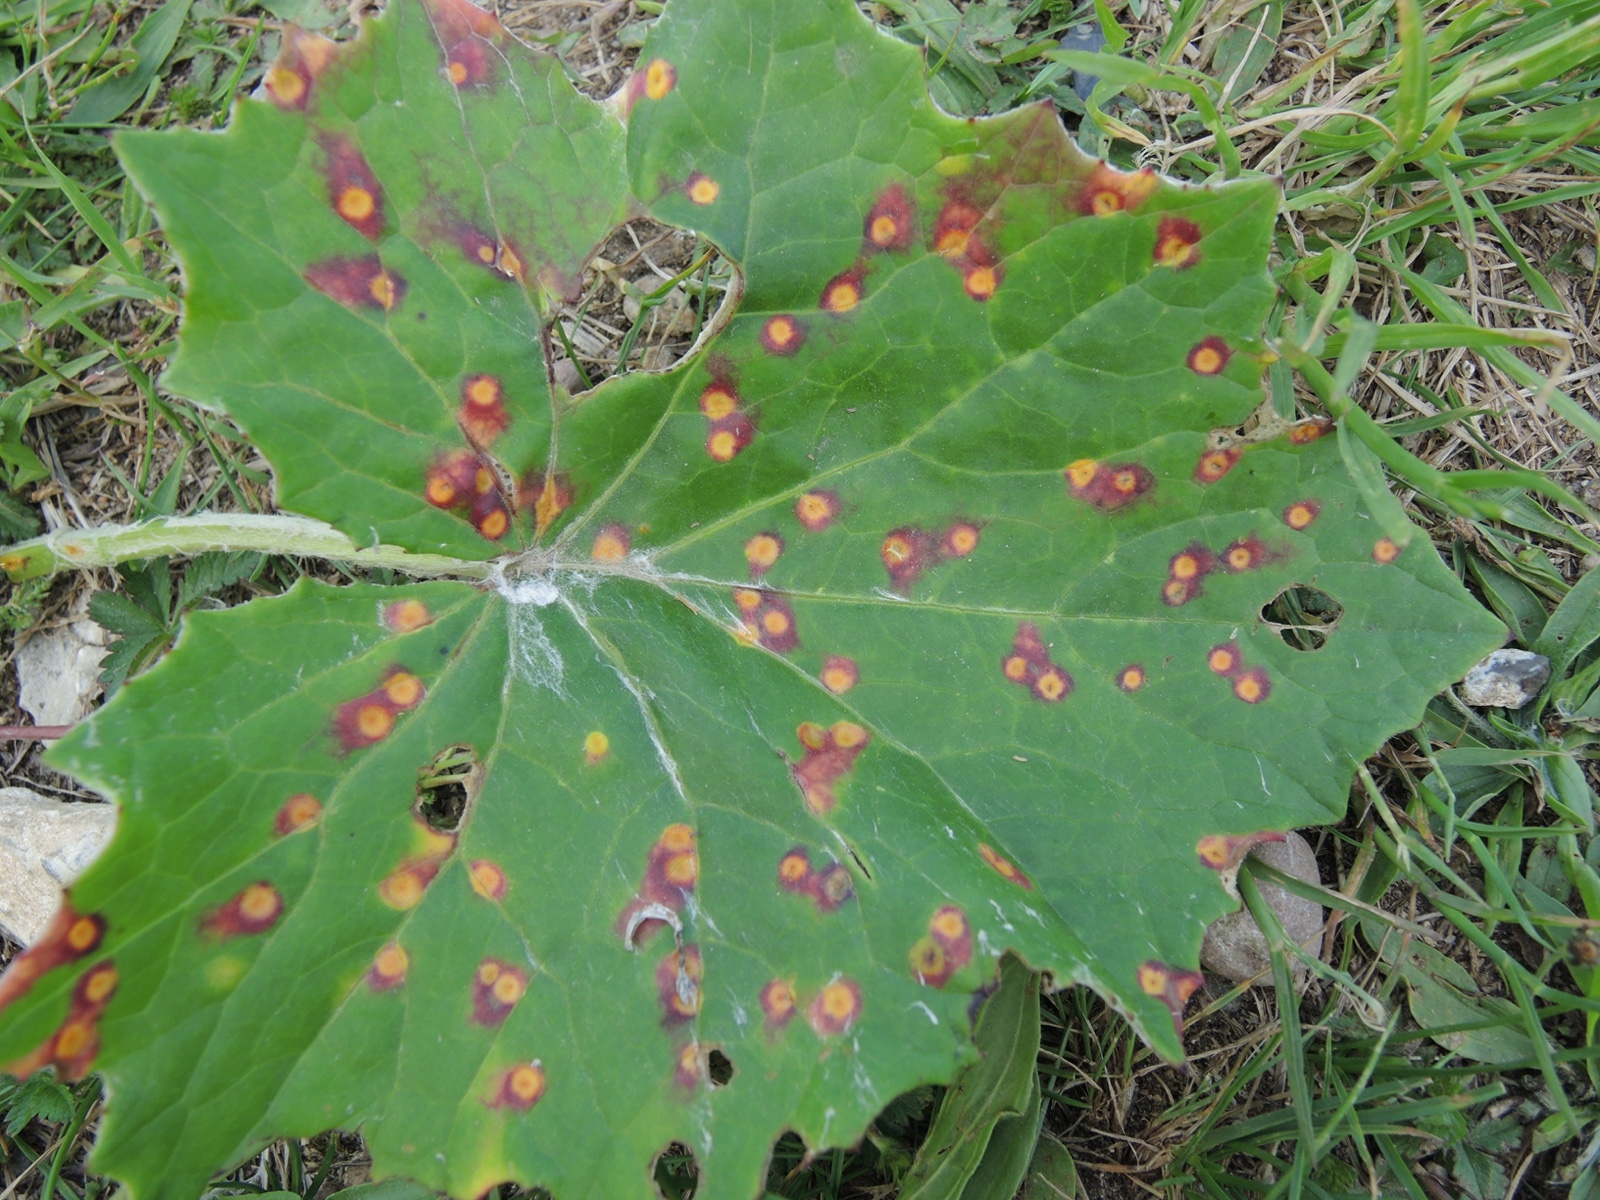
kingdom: Fungi
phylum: Basidiomycota
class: Pucciniomycetes
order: Pucciniales
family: Pucciniaceae
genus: Puccinia
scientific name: Puccinia poarum
